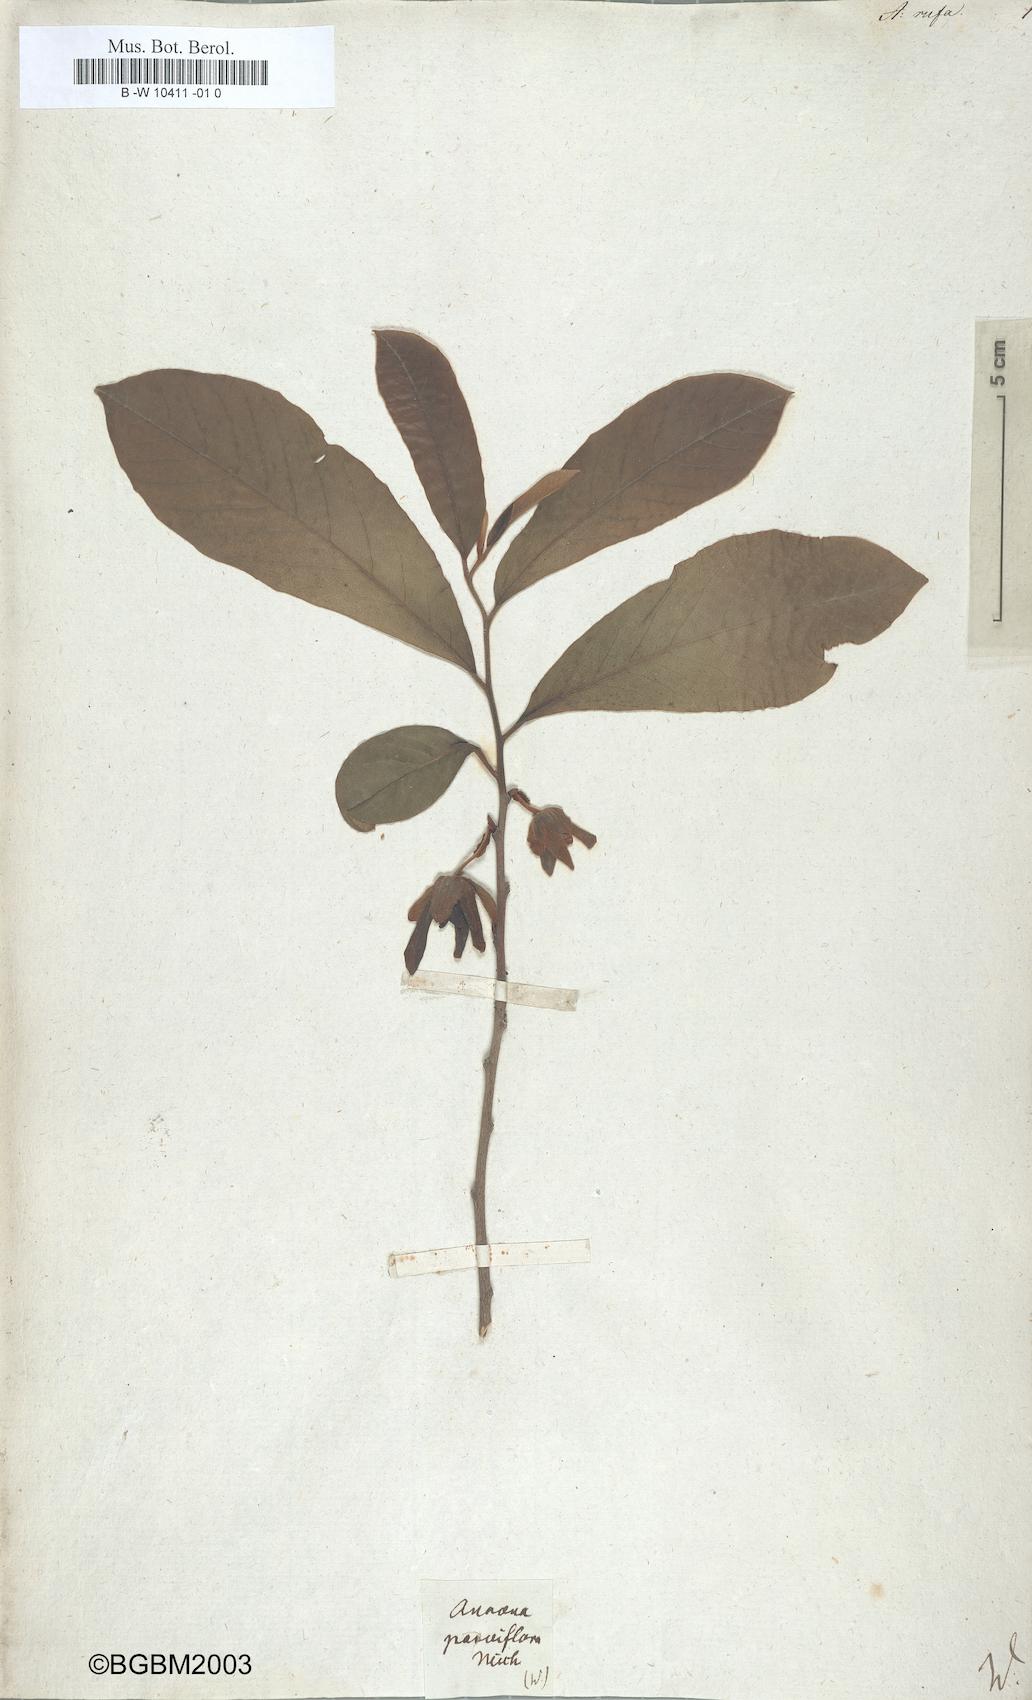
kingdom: Plantae
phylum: Tracheophyta
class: Magnoliopsida
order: Magnoliales
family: Annonaceae
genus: Annona
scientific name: Annona volubilis
